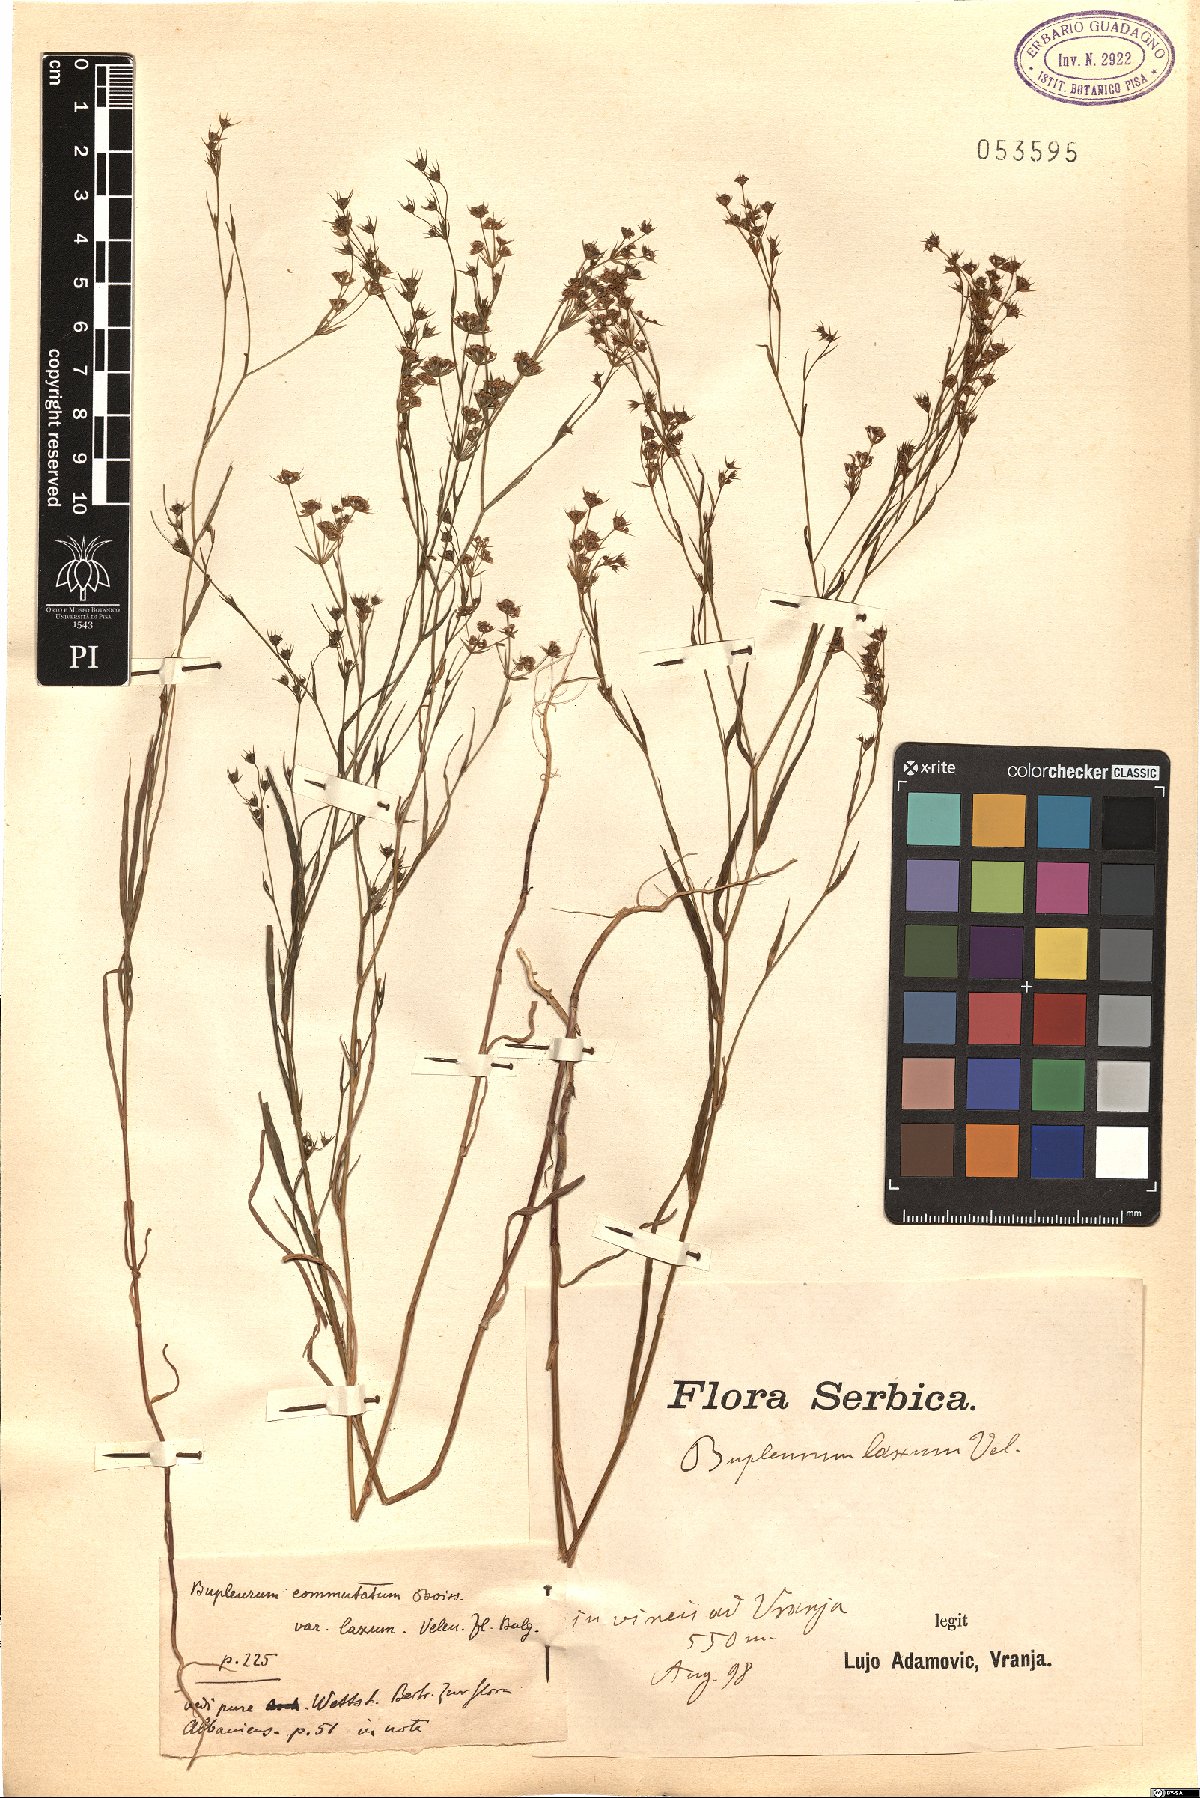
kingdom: Plantae
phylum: Tracheophyta
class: Magnoliopsida
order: Apiales
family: Apiaceae
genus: Bupleurum
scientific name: Bupleurum commutatum
